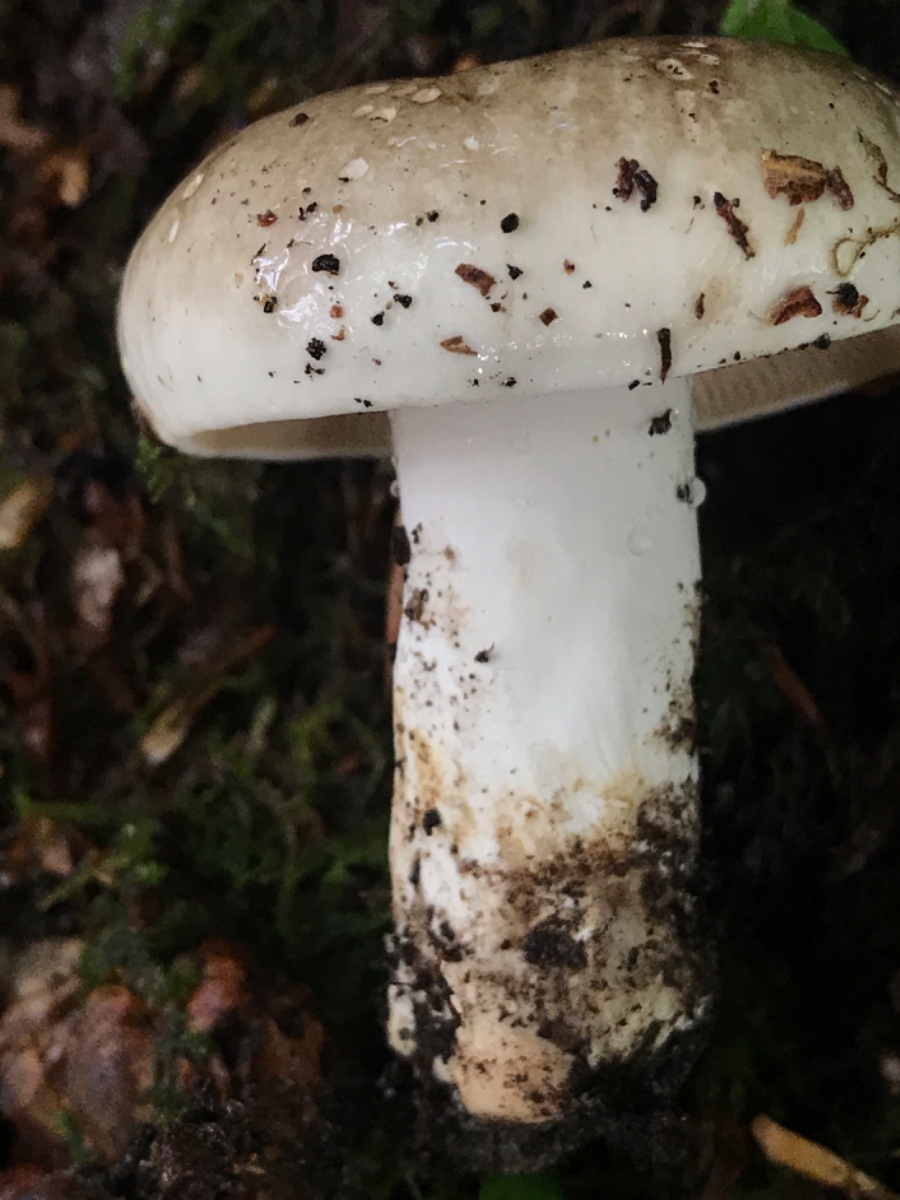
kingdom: Fungi
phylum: Basidiomycota
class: Agaricomycetes
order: Russulales
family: Russulaceae
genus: Russula
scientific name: Russula adusta
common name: sværtende skørhat
